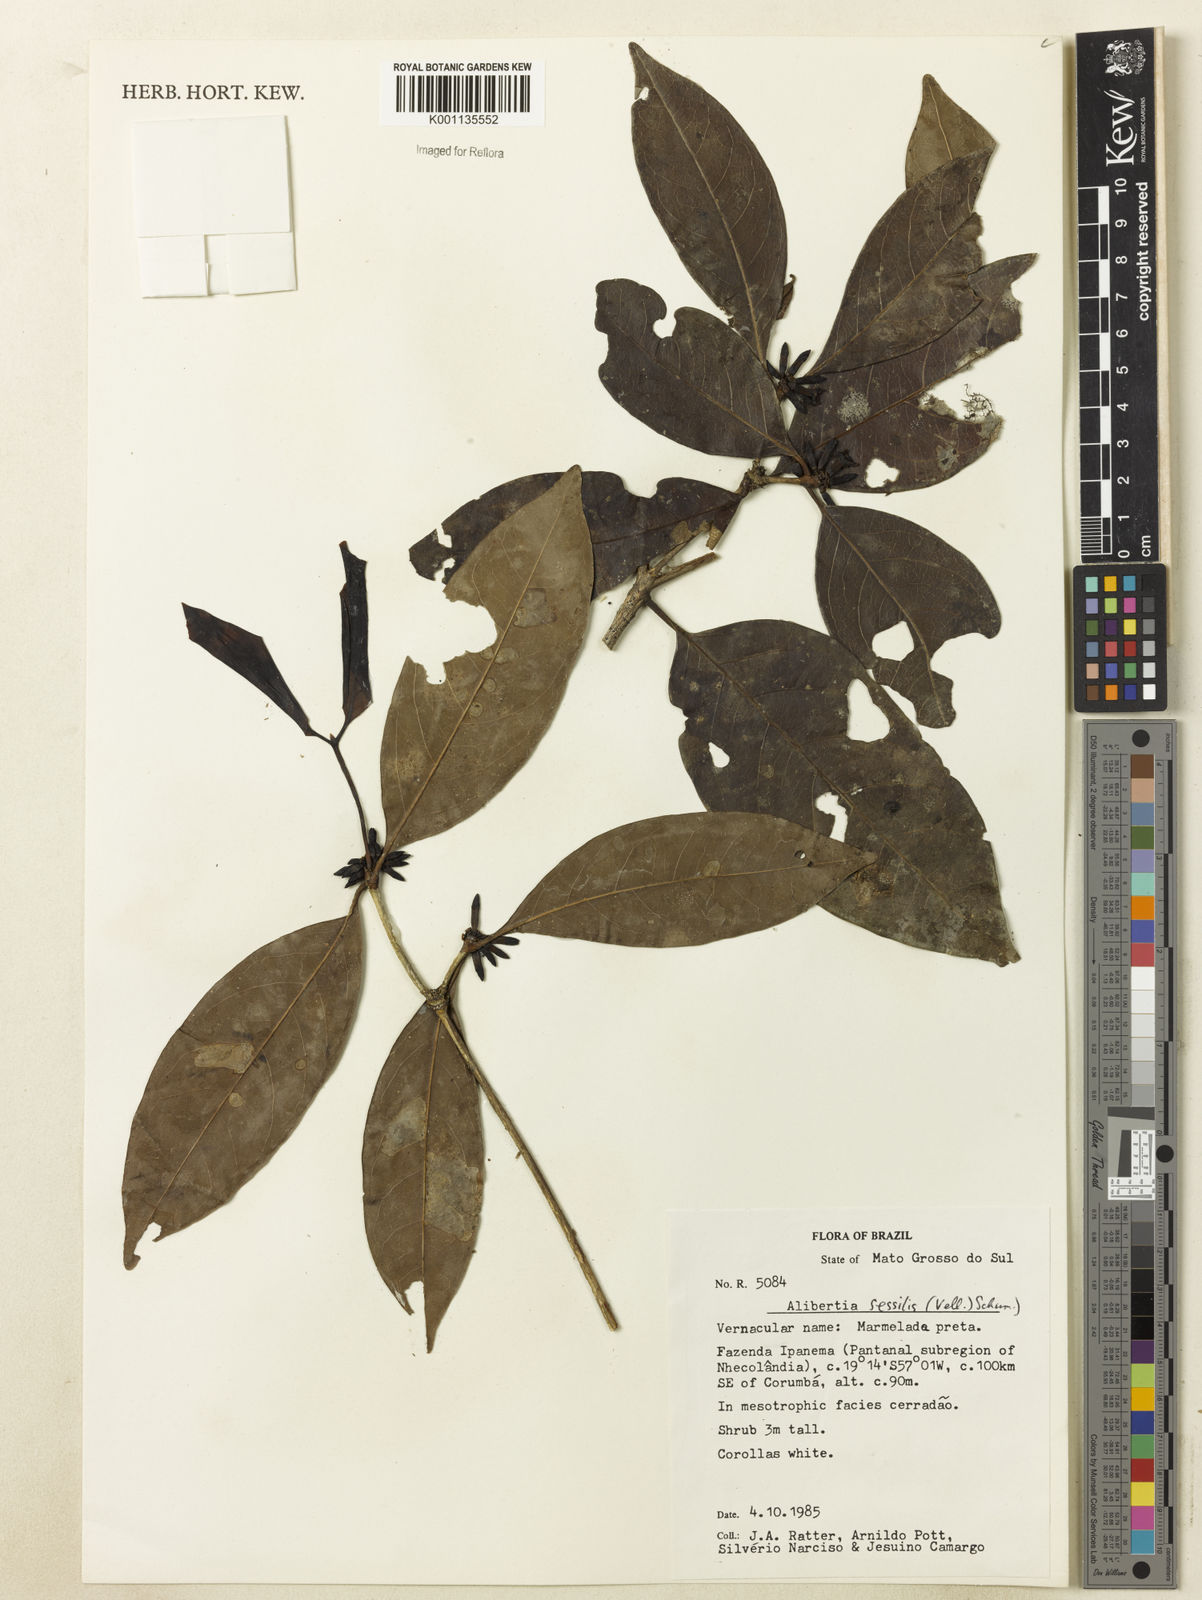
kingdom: Plantae
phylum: Tracheophyta
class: Magnoliopsida
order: Gentianales
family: Rubiaceae
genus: Cordiera
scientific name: Cordiera sessilis
